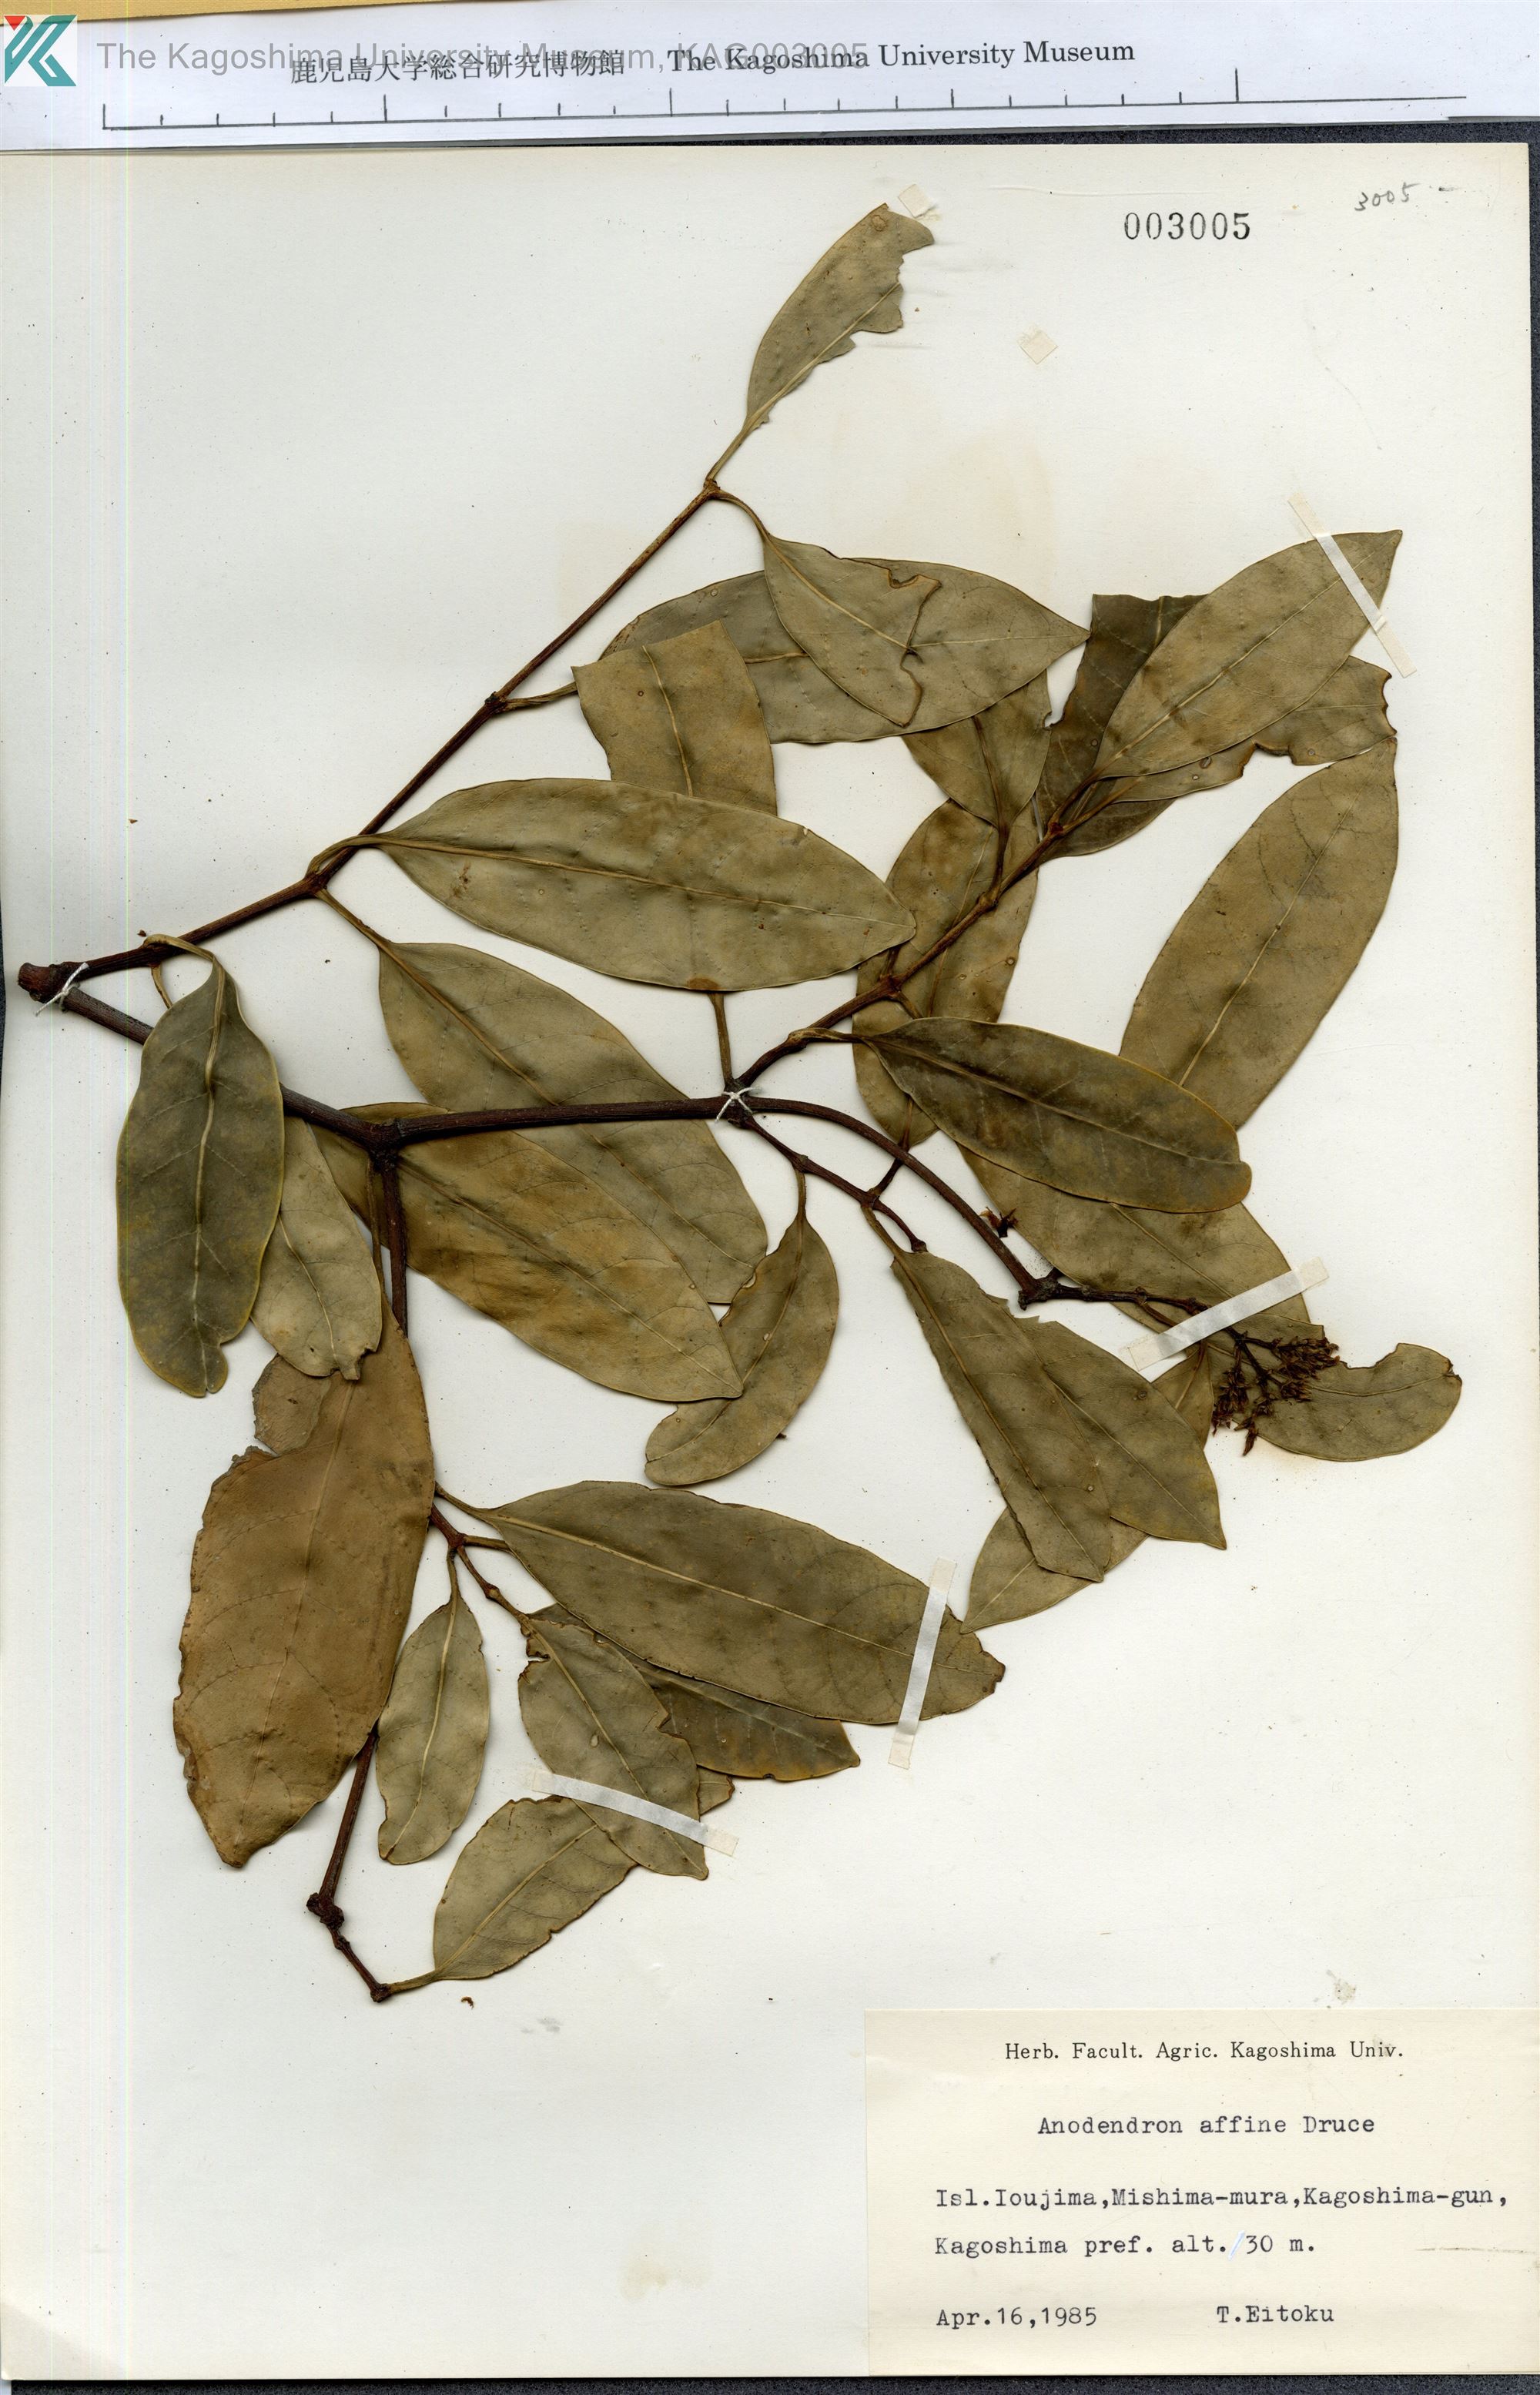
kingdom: Plantae
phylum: Tracheophyta
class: Magnoliopsida
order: Gentianales
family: Apocynaceae
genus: Anodendron
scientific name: Anodendron affine
